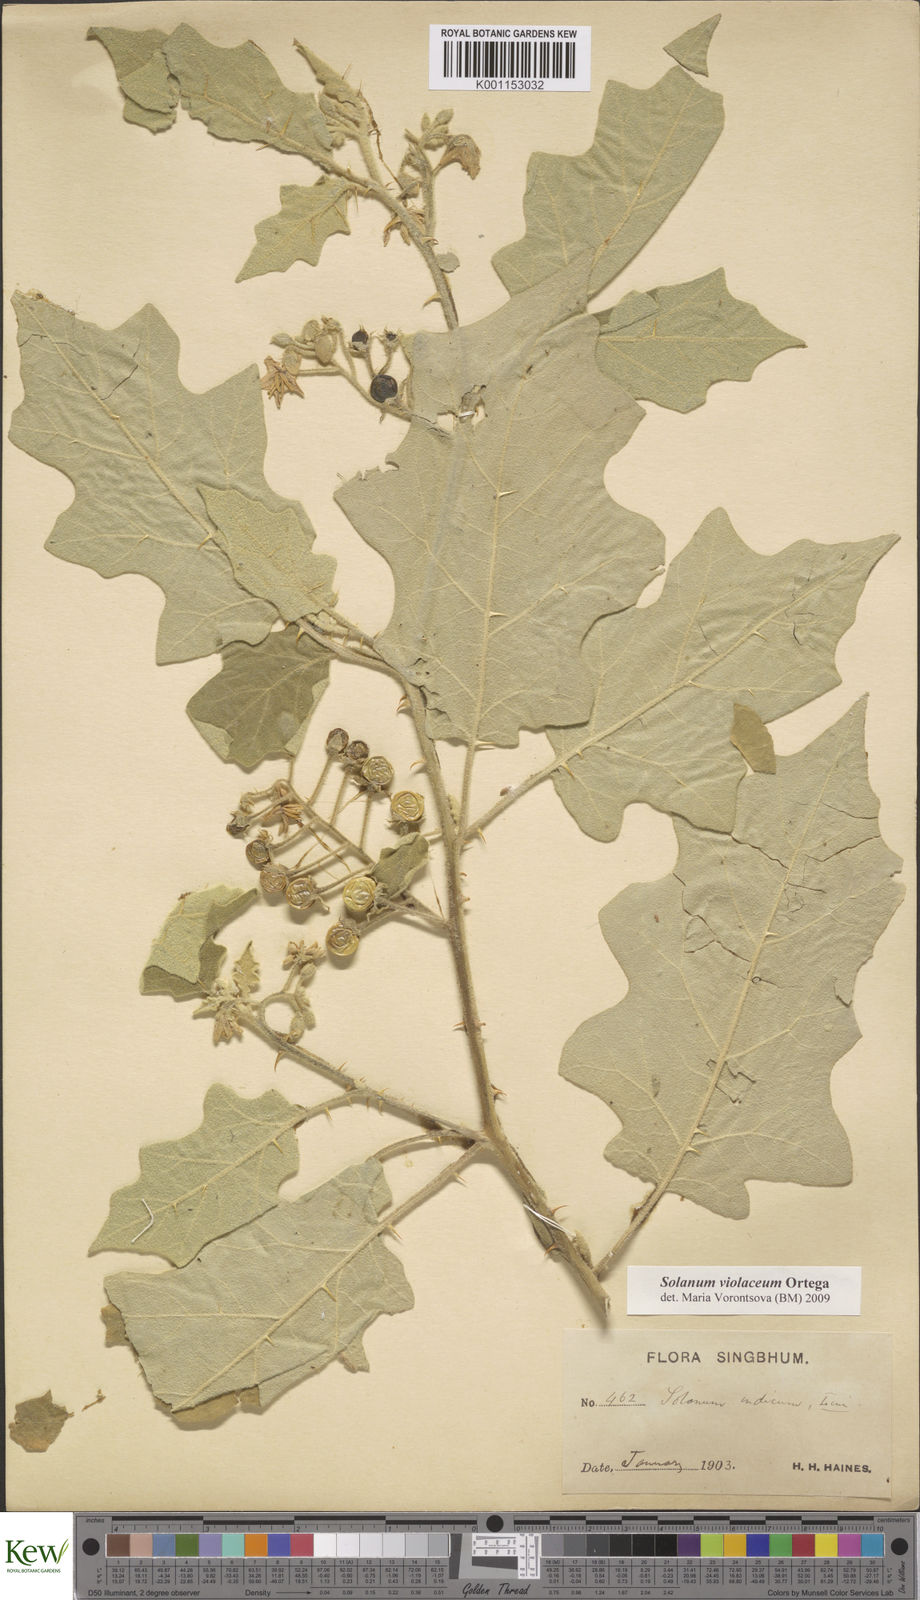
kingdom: Plantae
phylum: Tracheophyta
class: Magnoliopsida
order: Solanales
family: Solanaceae
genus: Solanum
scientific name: Solanum violaceum
